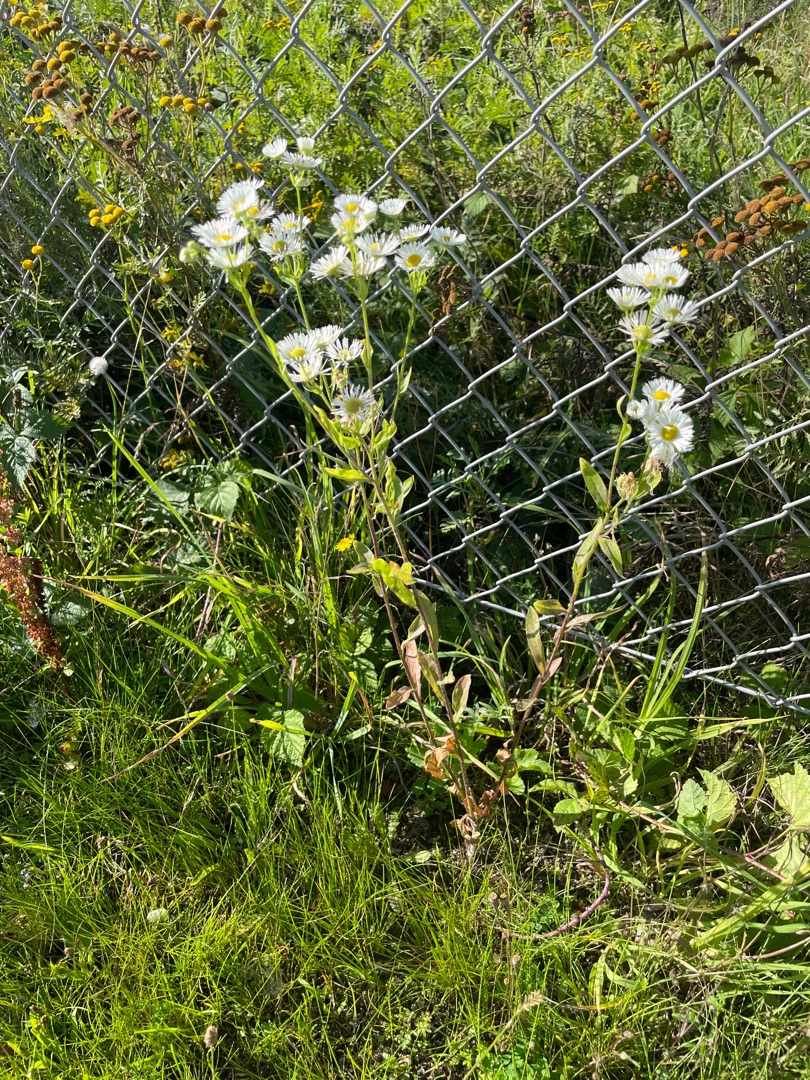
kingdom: Plantae
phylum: Tracheophyta
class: Magnoliopsida
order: Asterales
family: Asteraceae
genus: Erigeron
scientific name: Erigeron annuus
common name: Smalstråle
